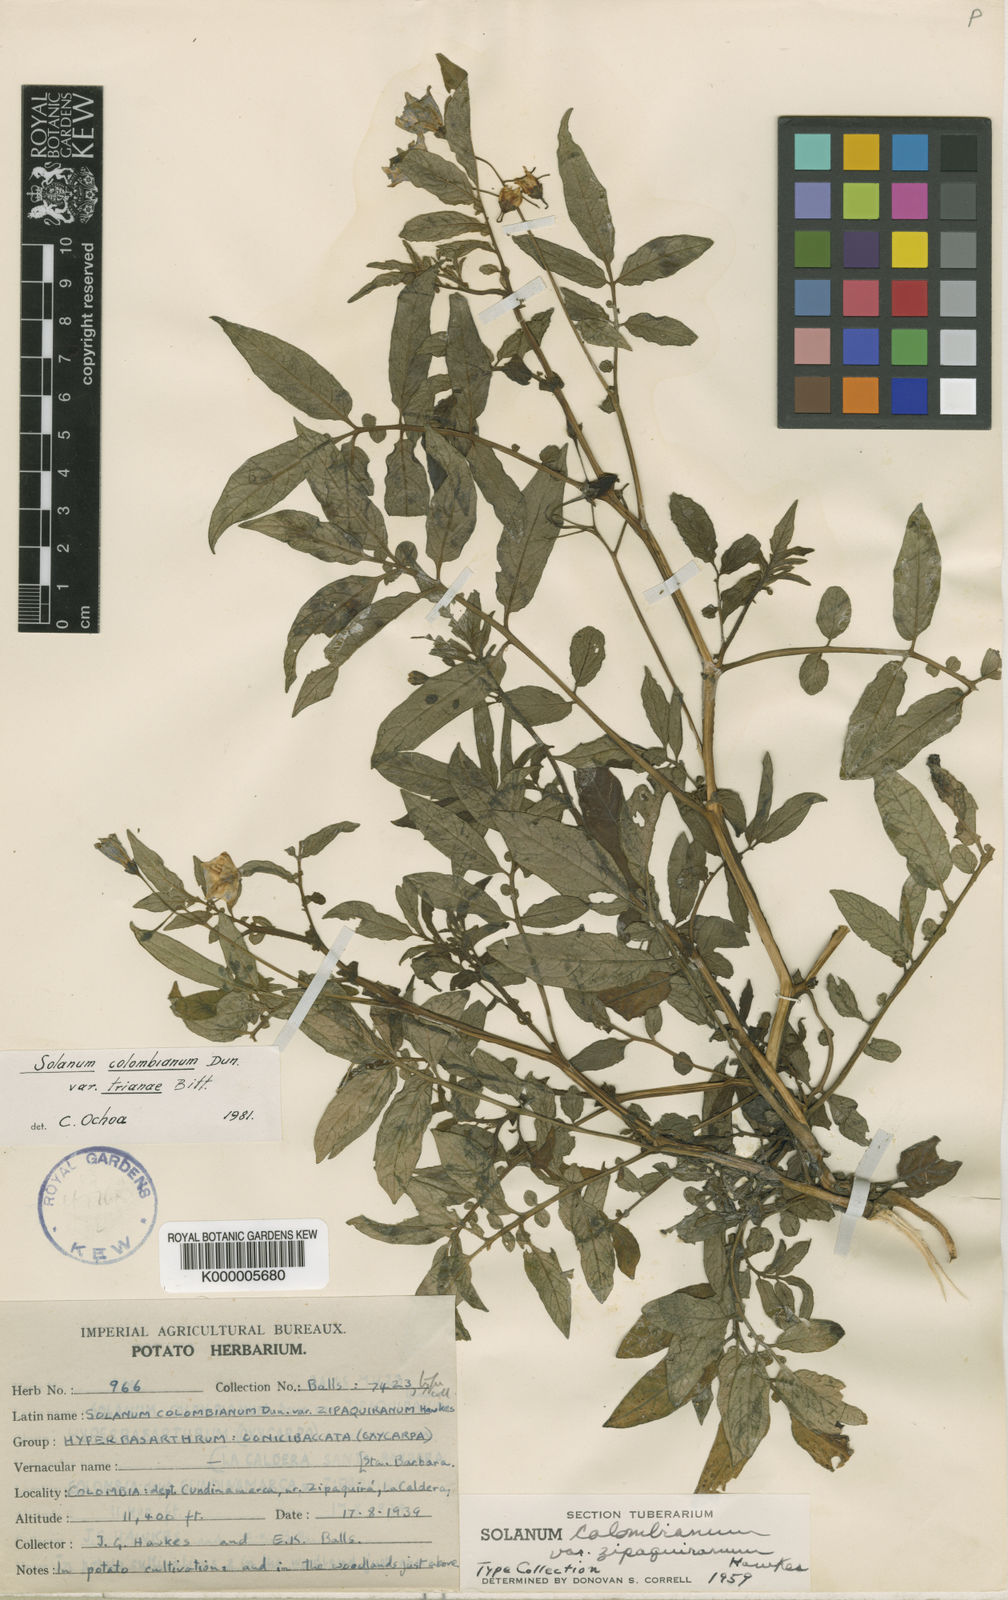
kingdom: Plantae
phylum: Tracheophyta
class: Magnoliopsida
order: Solanales
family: Solanaceae
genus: Solanum
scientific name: Solanum colombianum
